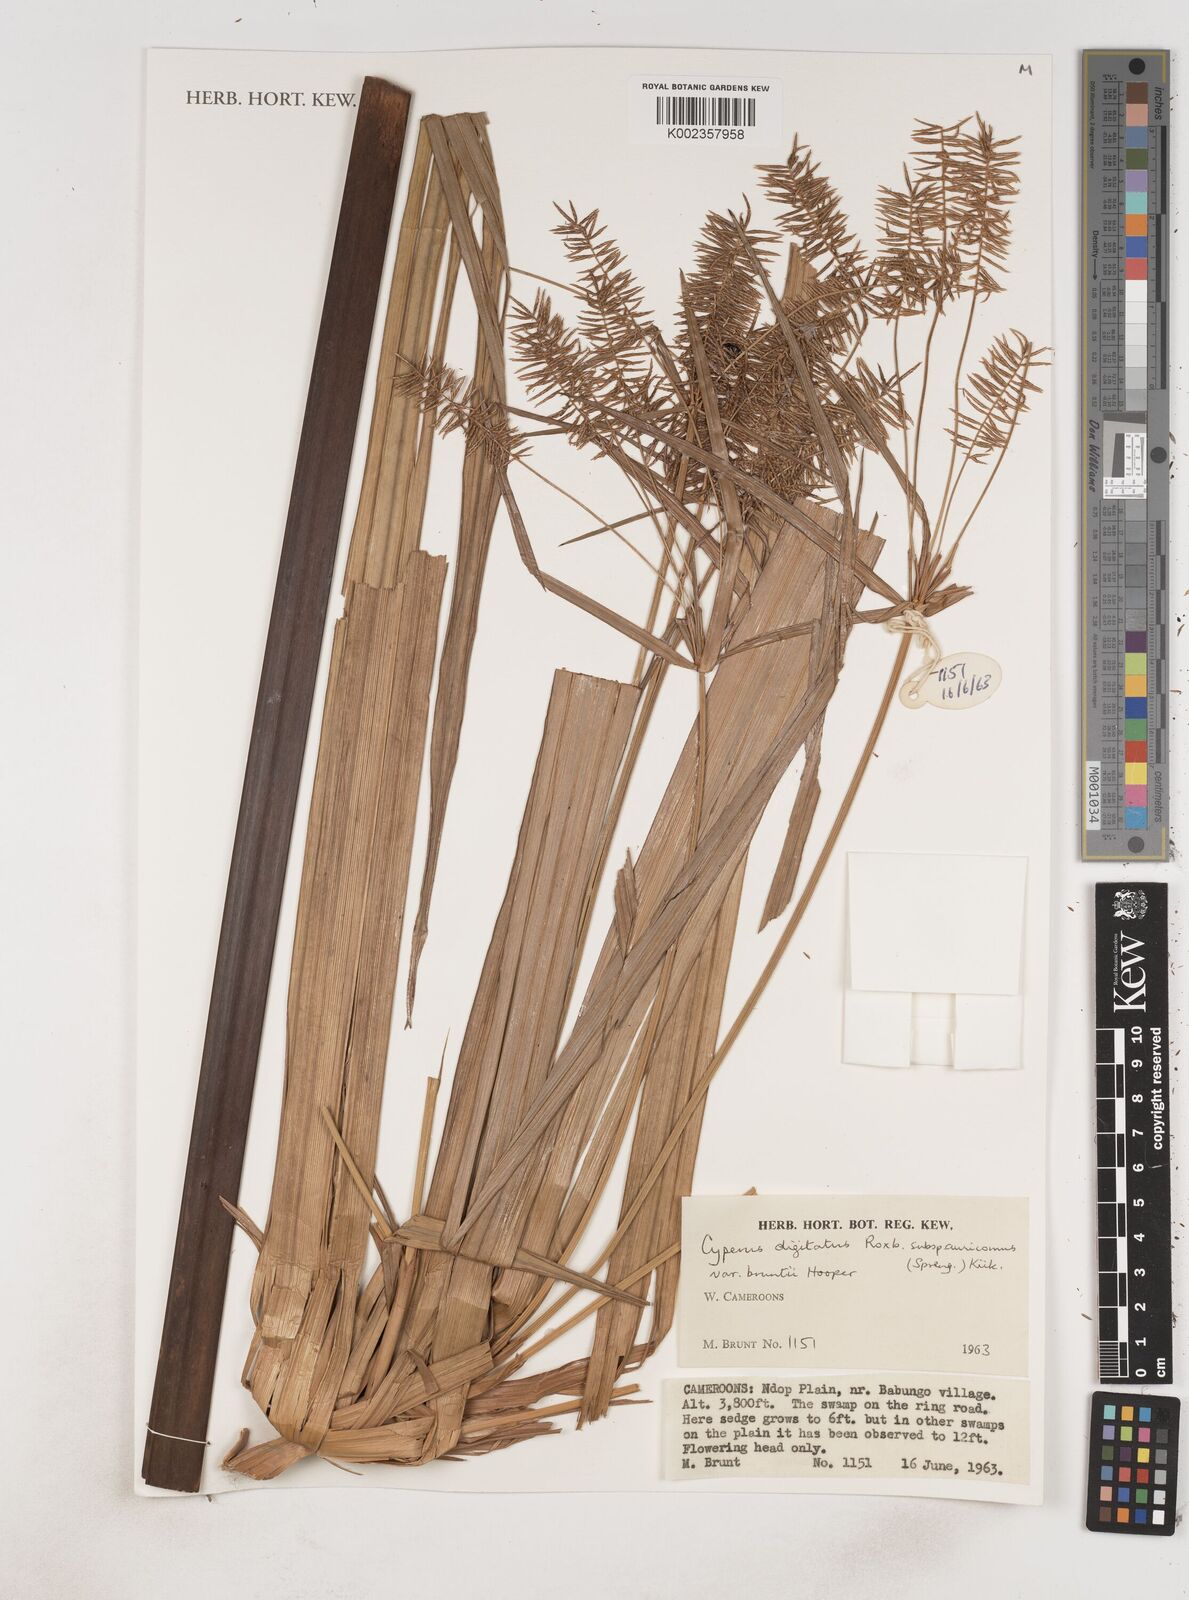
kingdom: Plantae
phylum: Tracheophyta
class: Liliopsida
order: Poales
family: Cyperaceae
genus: Cyperus
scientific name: Cyperus digitatus
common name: Finger flatsedge
